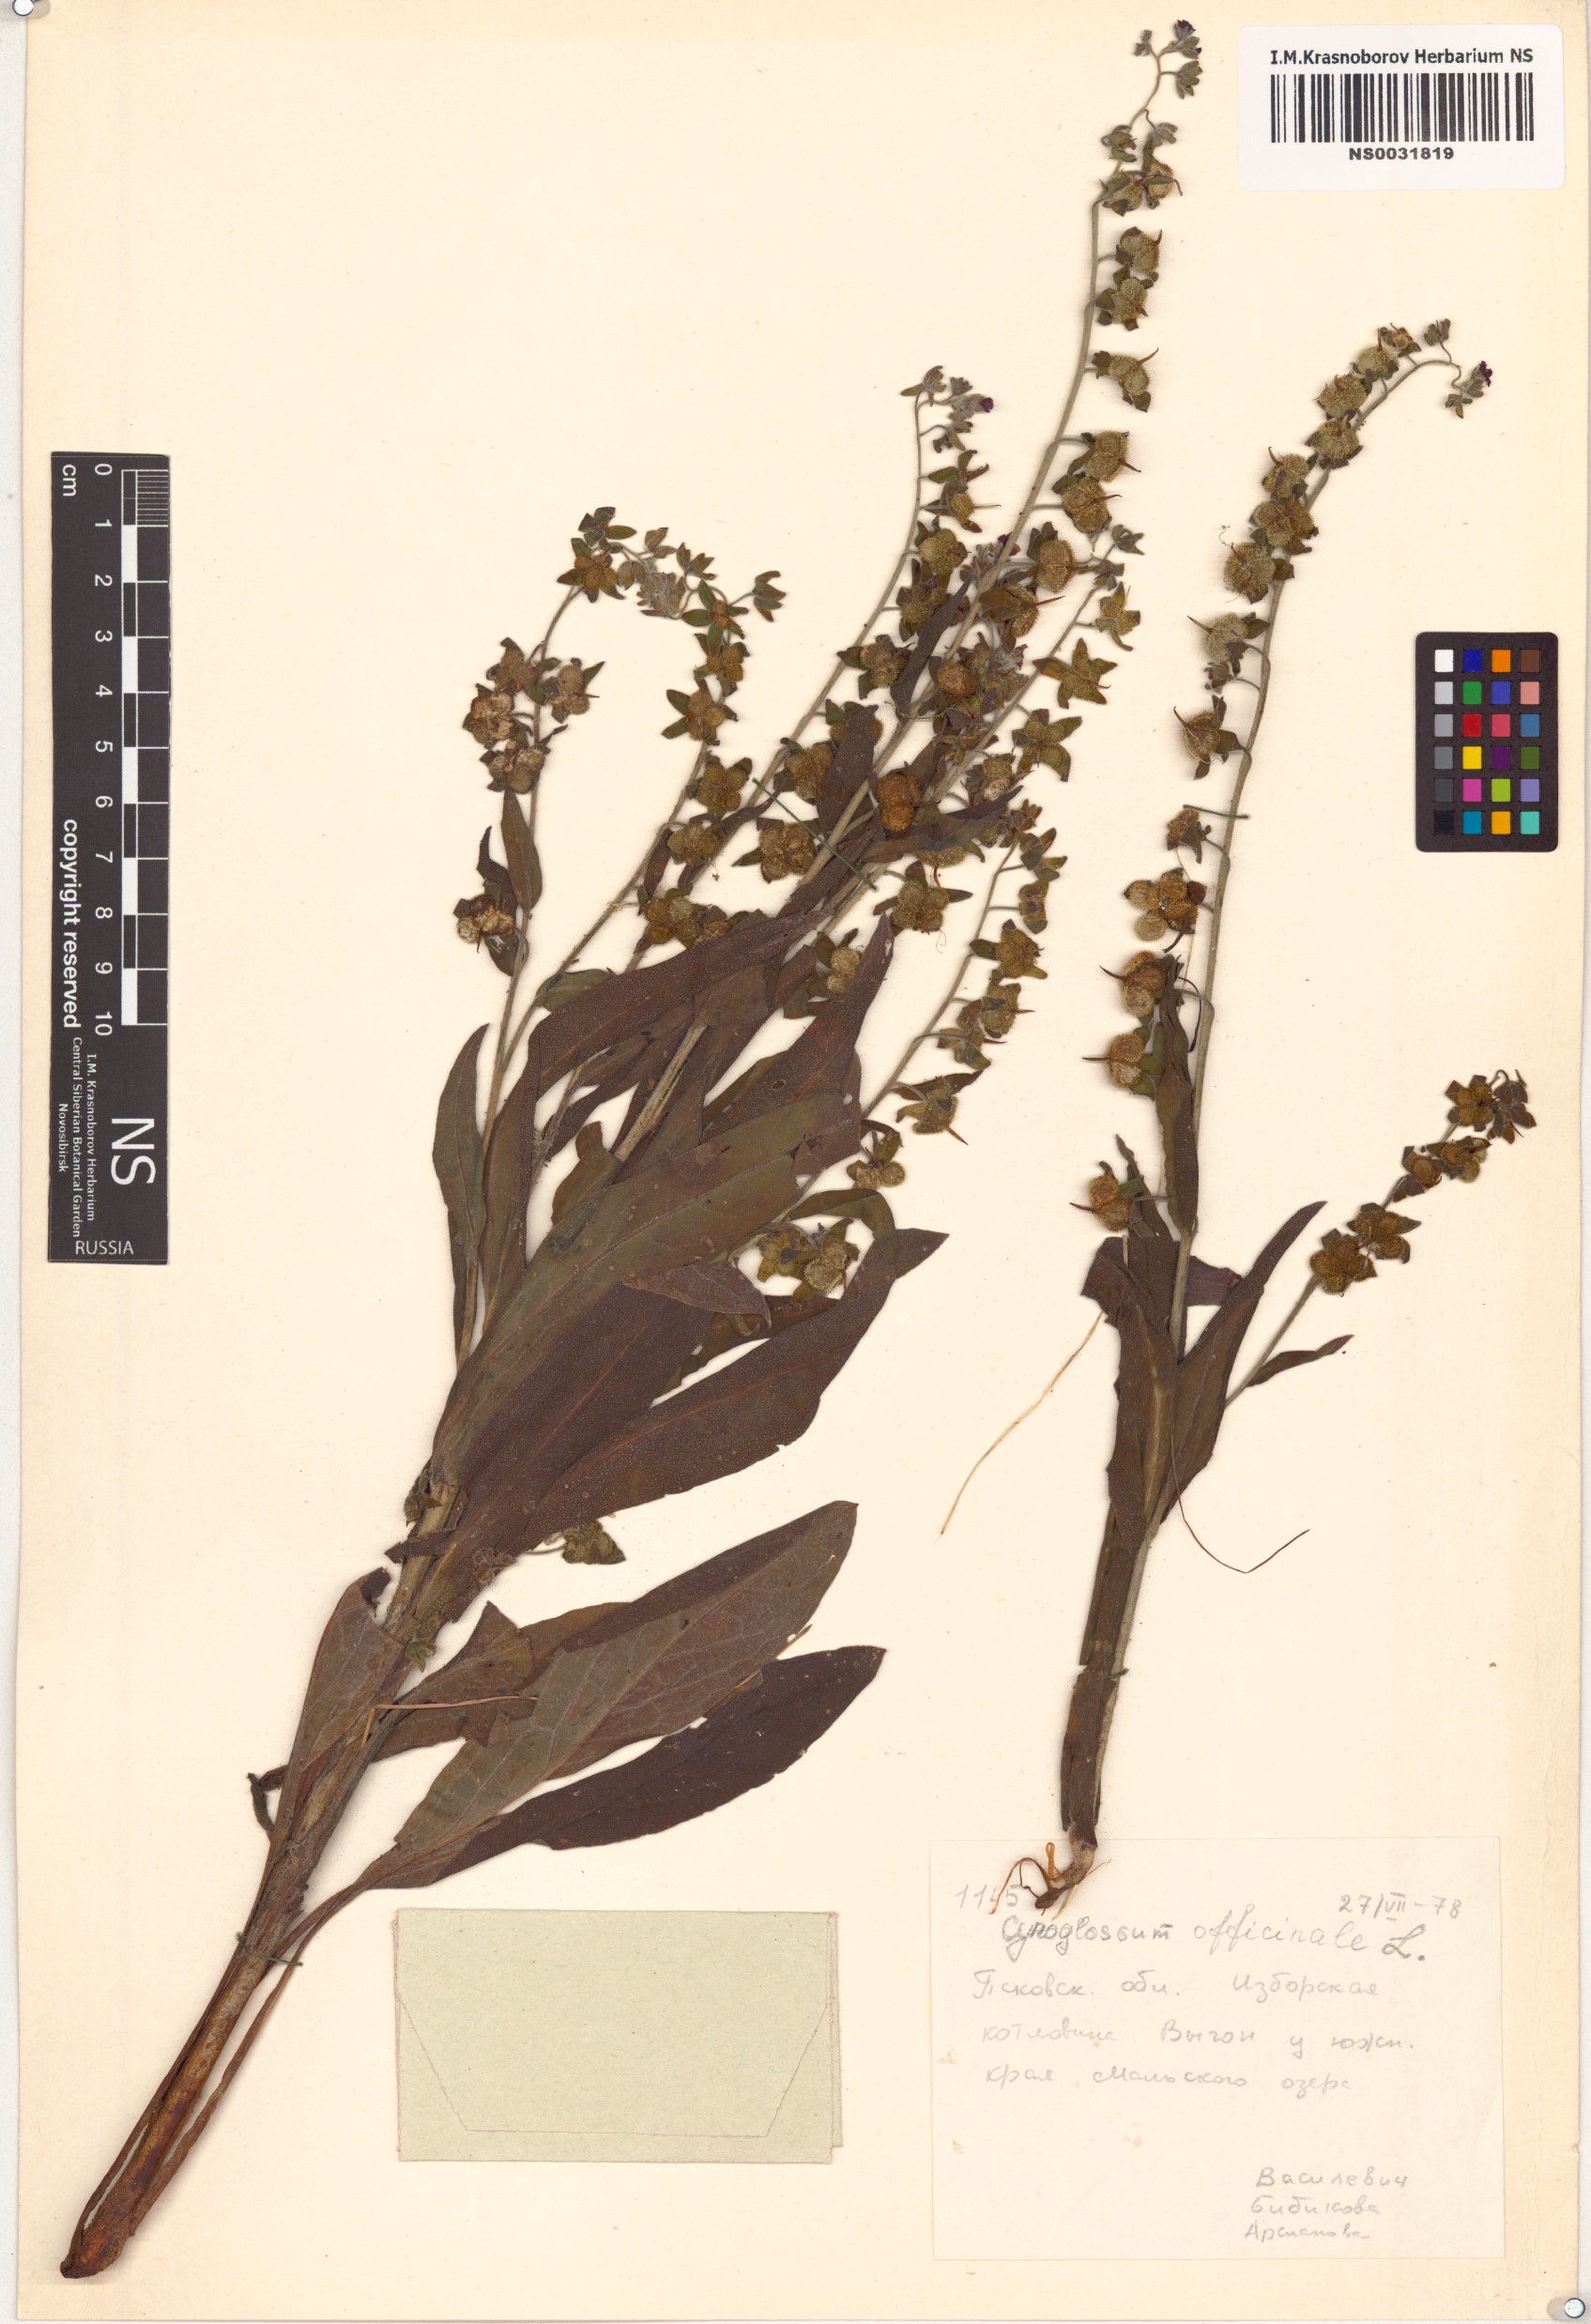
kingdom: Plantae
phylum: Tracheophyta
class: Magnoliopsida
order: Boraginales
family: Boraginaceae
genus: Cynoglossum
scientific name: Cynoglossum officinale
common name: Hound's-tongue
